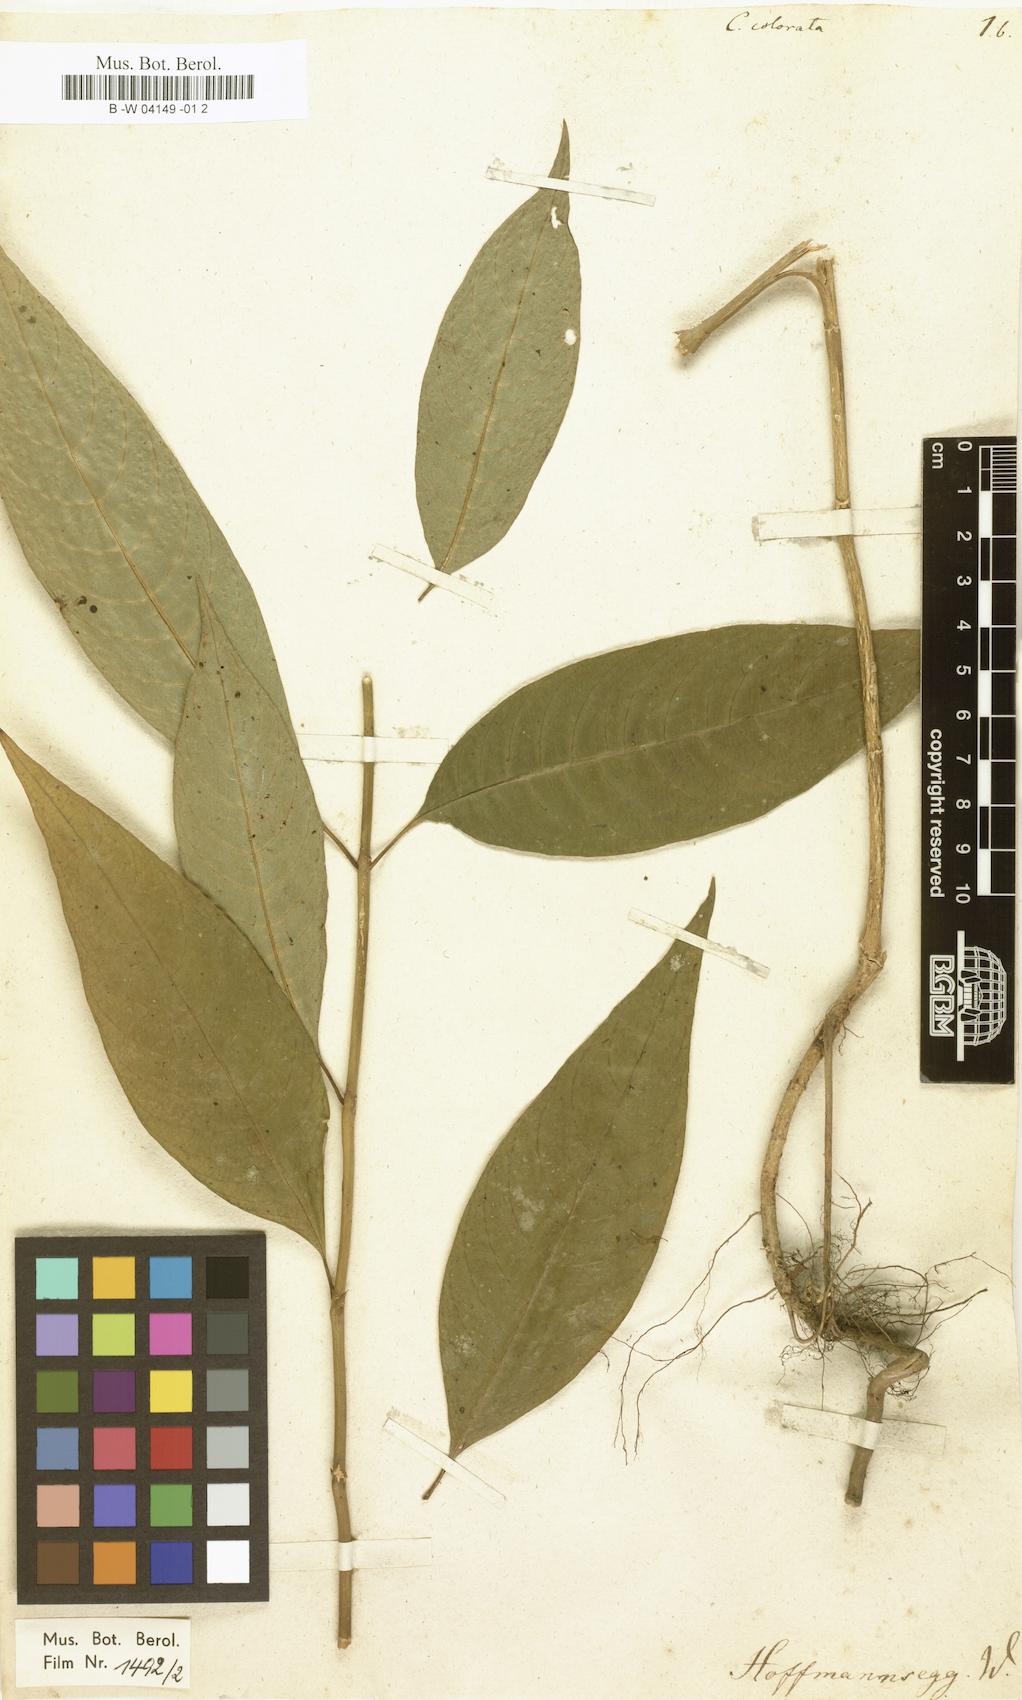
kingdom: Plantae
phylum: Tracheophyta
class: Magnoliopsida
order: Gentianales
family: Rubiaceae
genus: Palicourea
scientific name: Palicourea colorata
